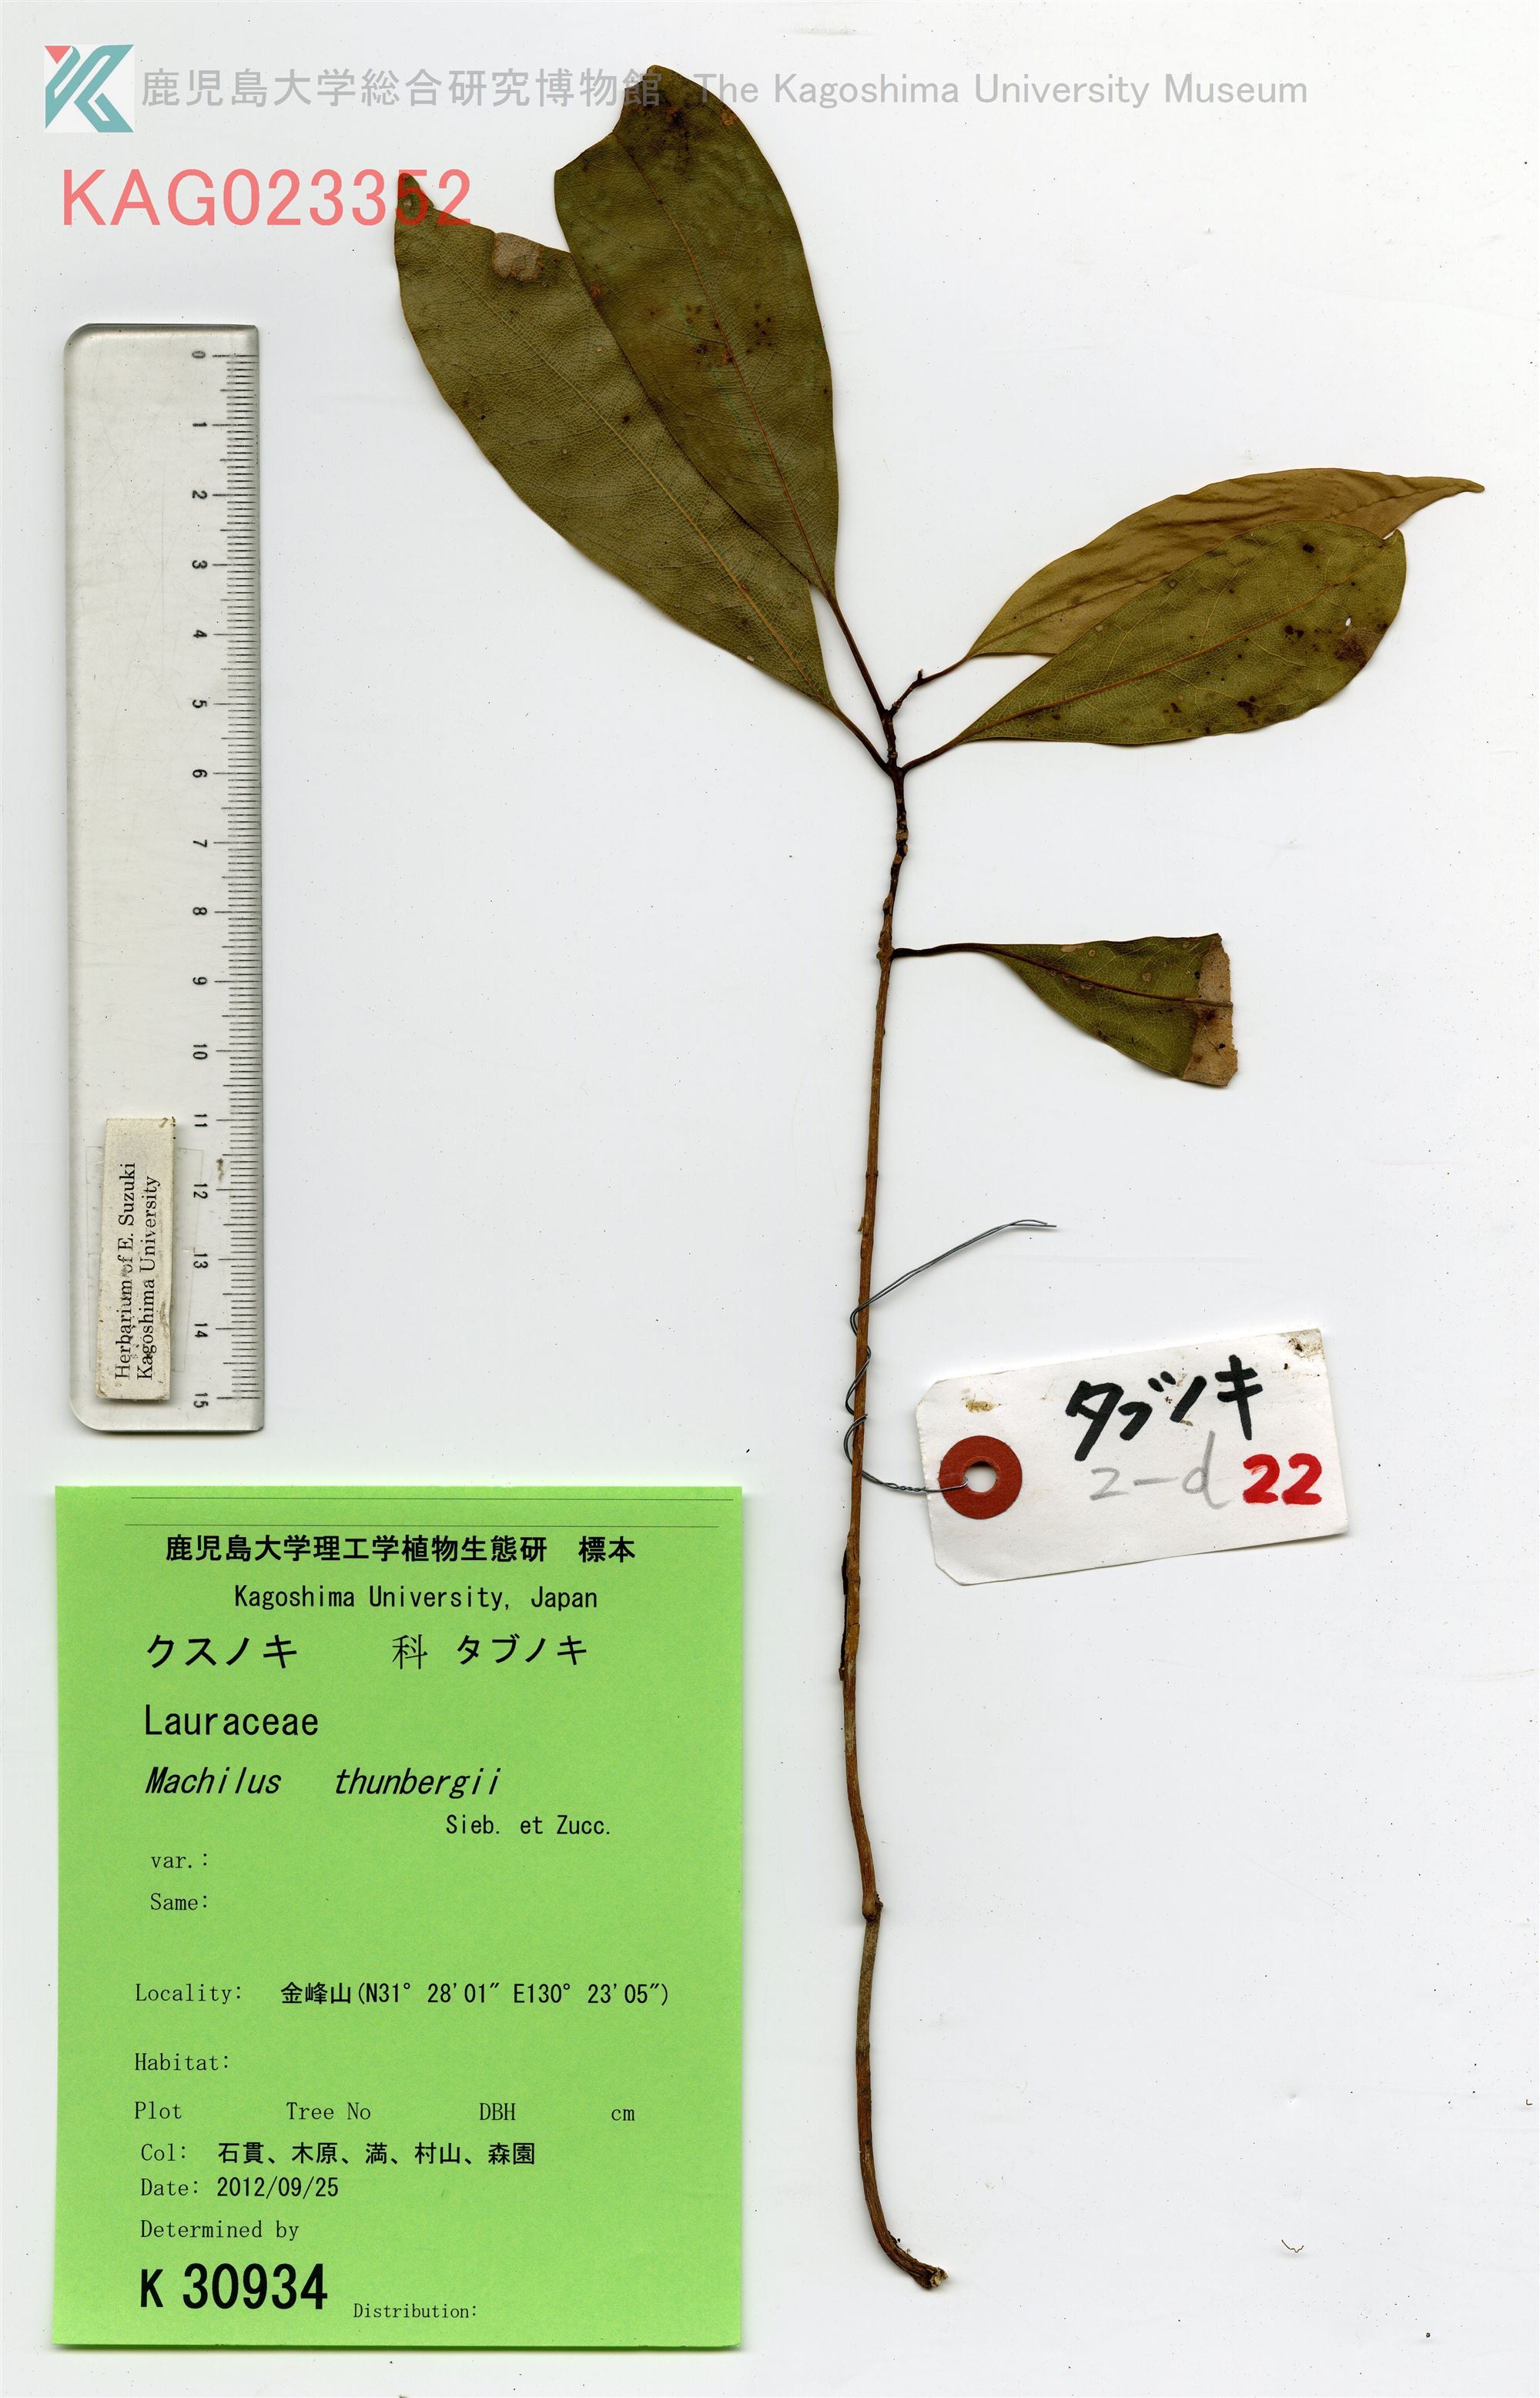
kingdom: Plantae
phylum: Tracheophyta
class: Magnoliopsida
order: Laurales
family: Lauraceae
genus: Machilus
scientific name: Machilus thunbergii
